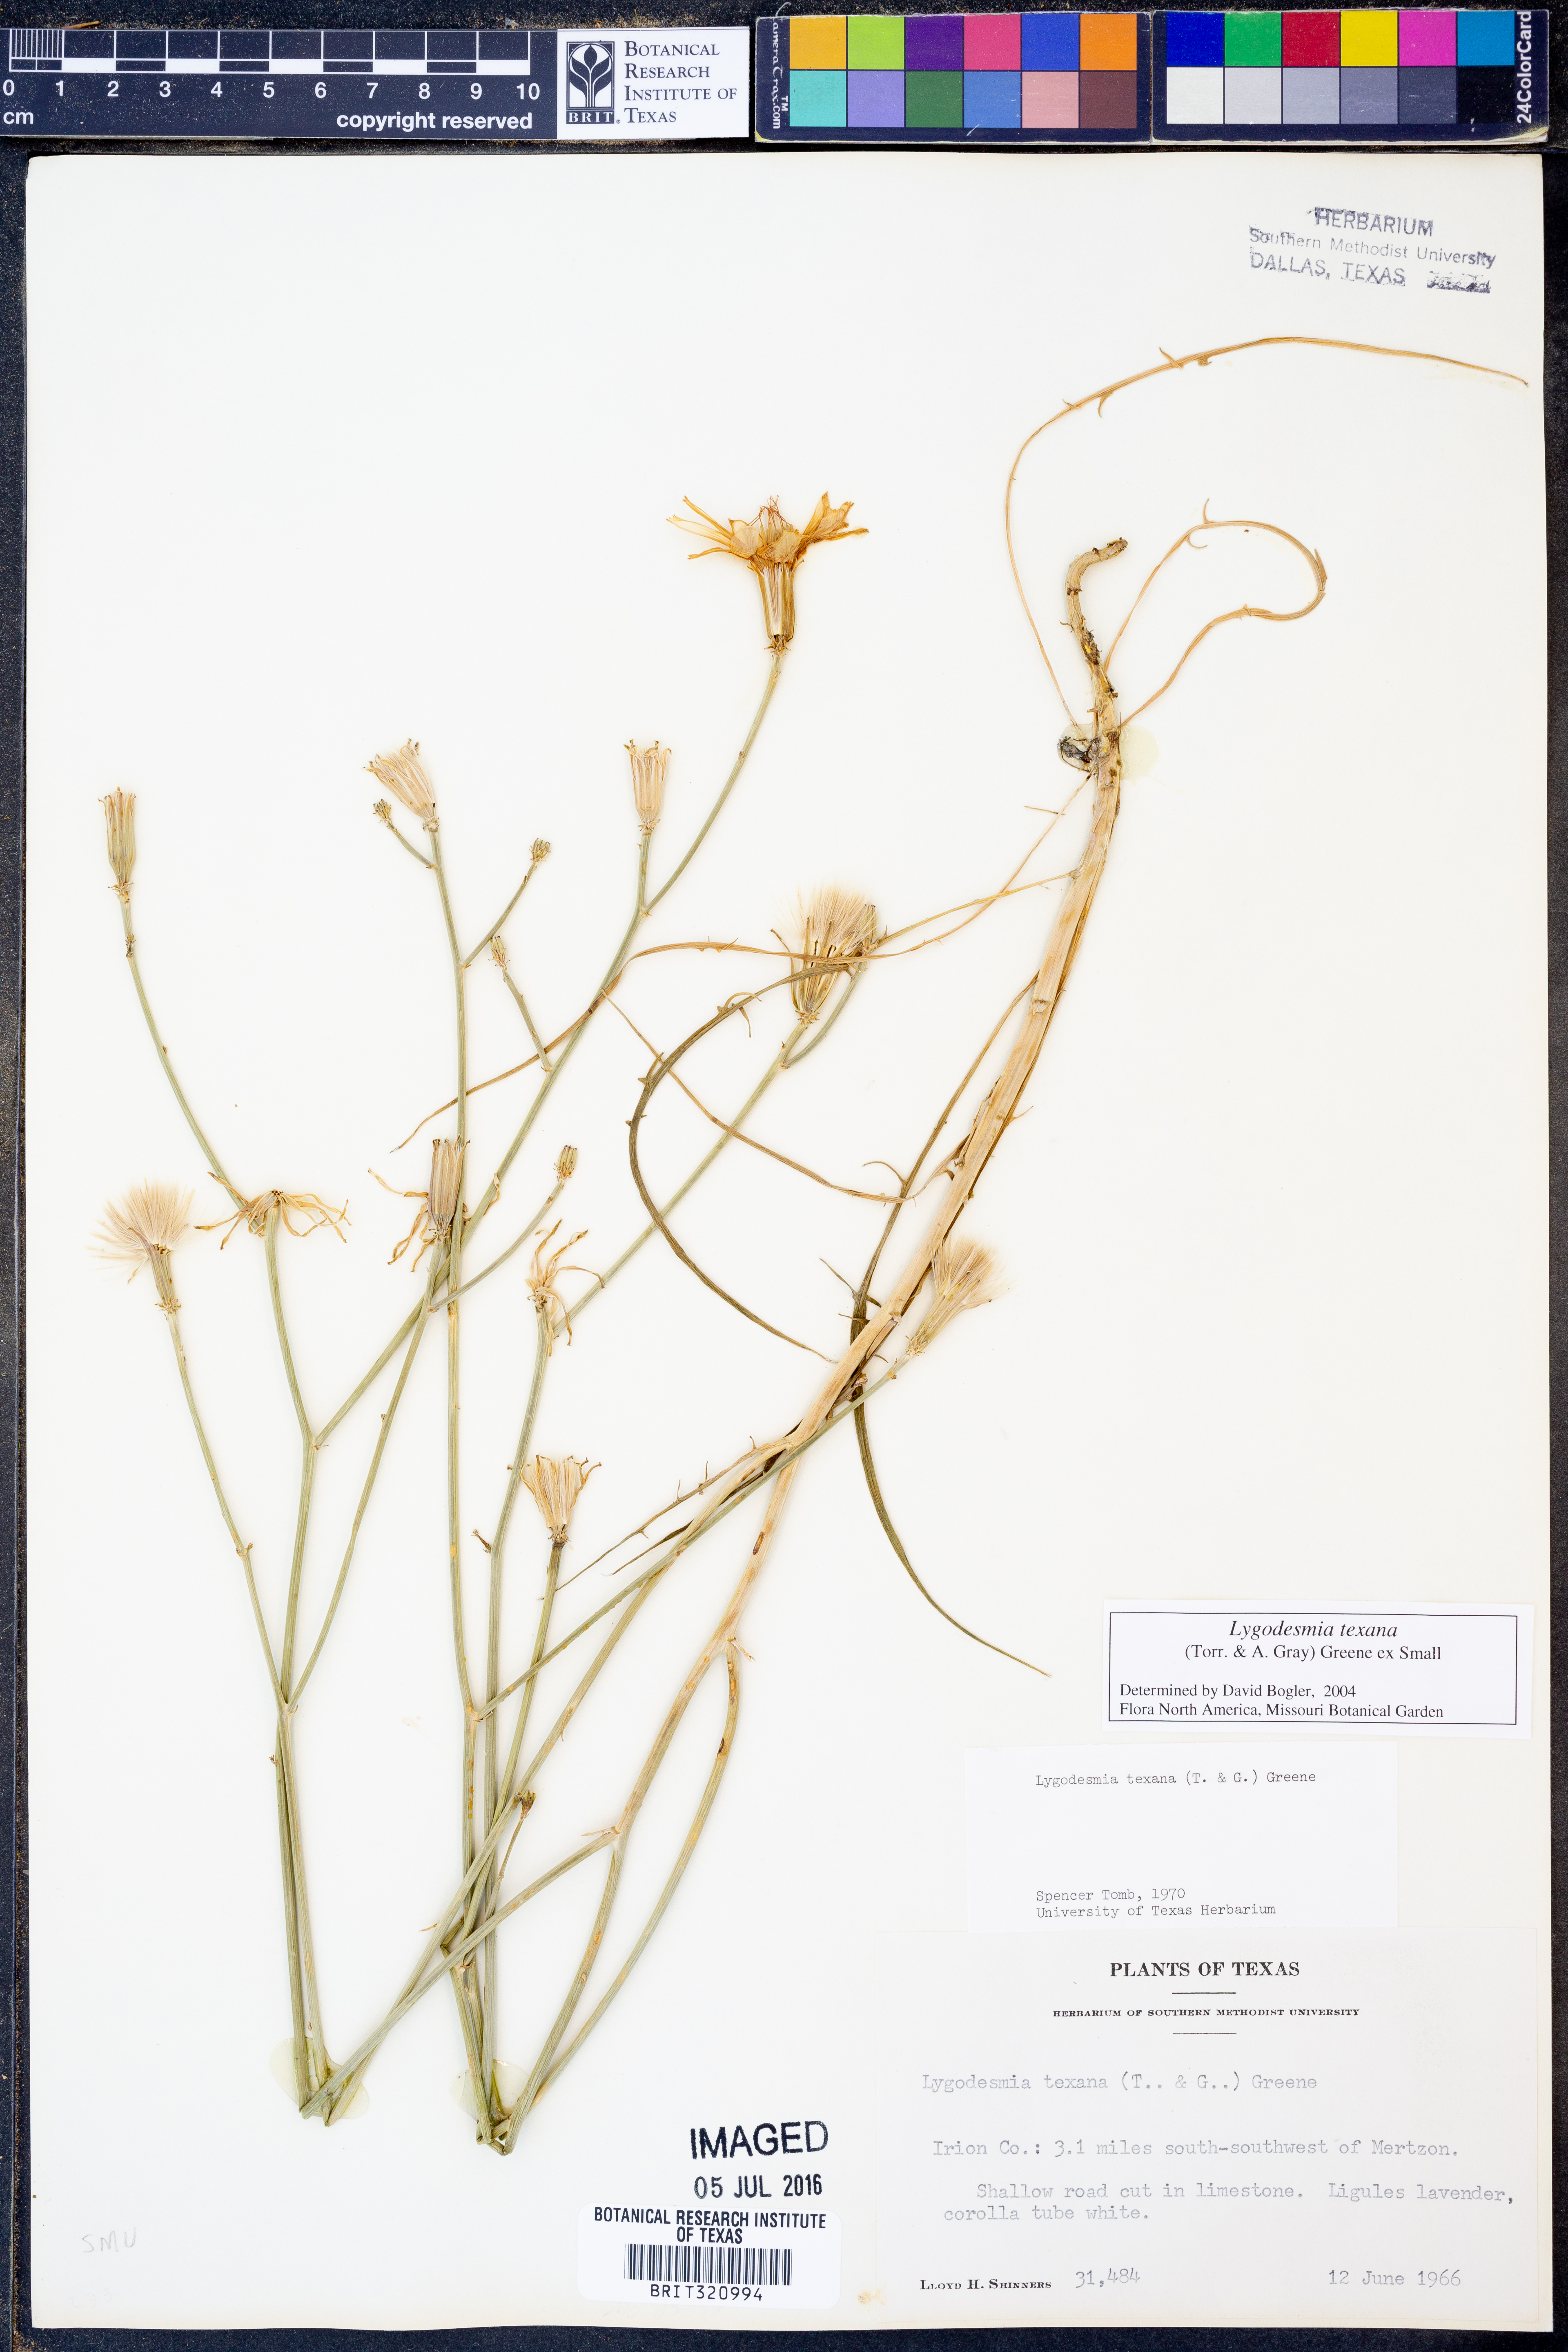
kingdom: Plantae
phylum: Tracheophyta
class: Magnoliopsida
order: Asterales
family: Asteraceae
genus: Lygodesmia
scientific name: Lygodesmia texana
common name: Texas skeleton-plant
